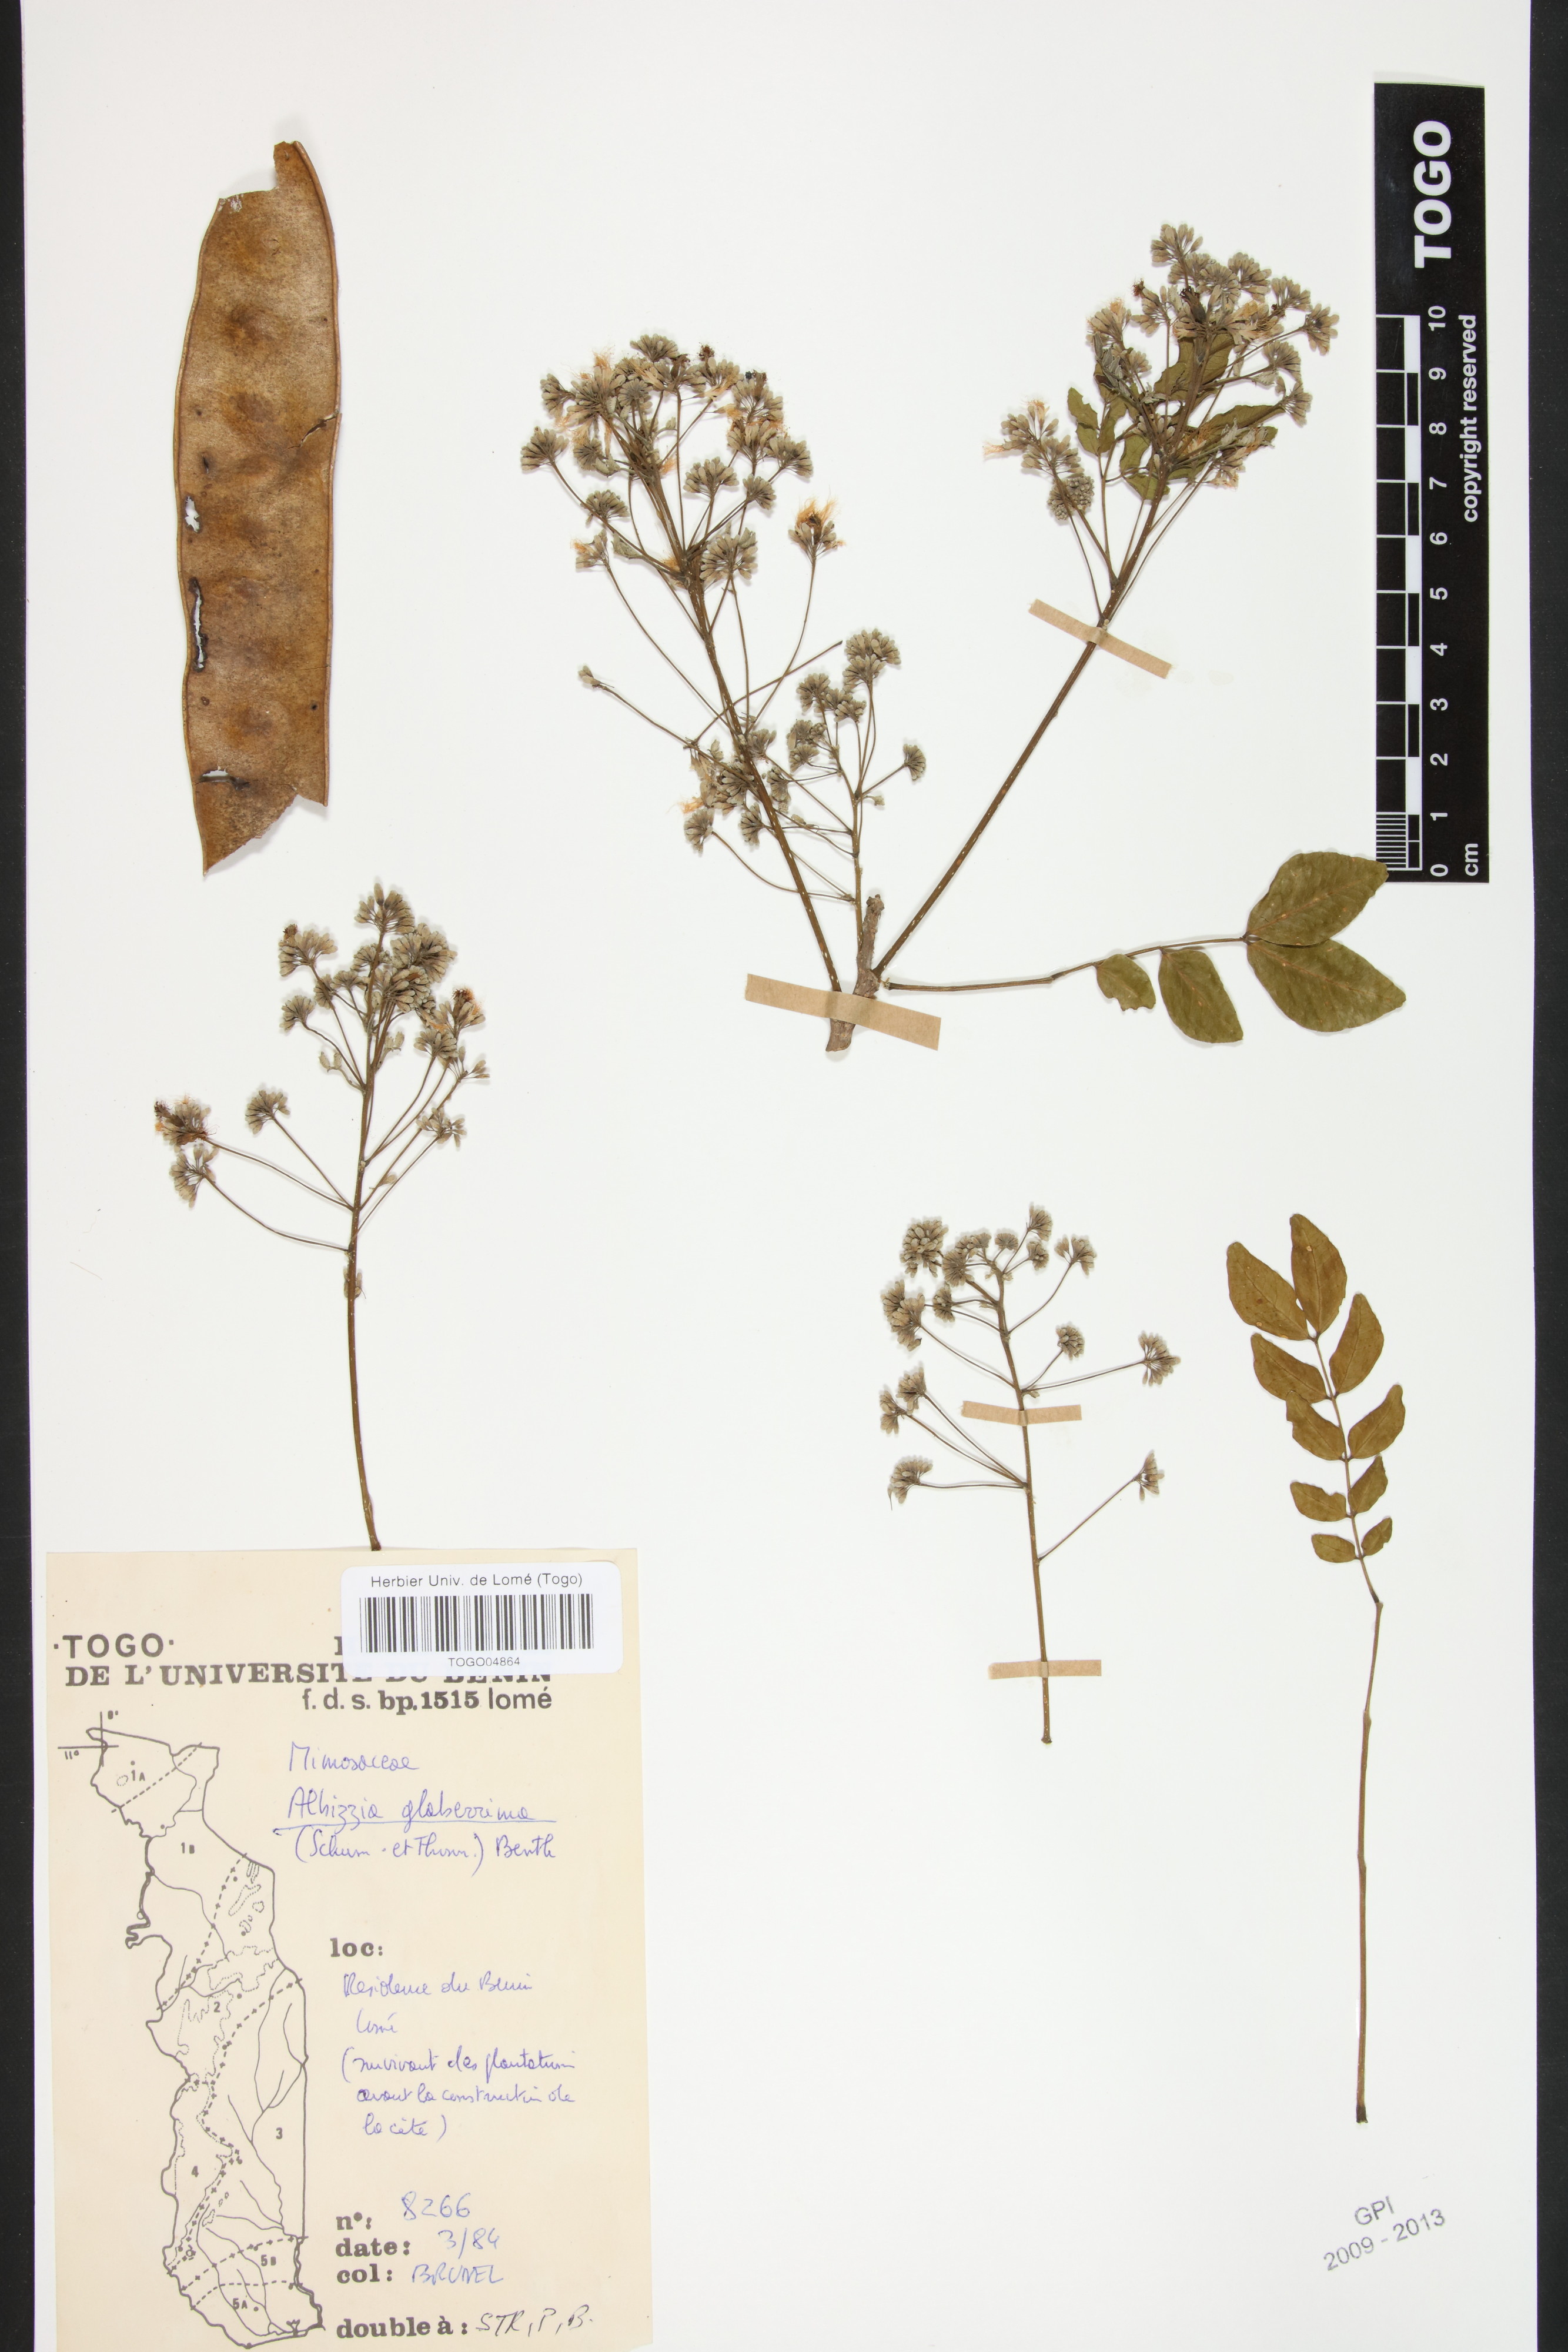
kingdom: Plantae
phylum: Tracheophyta
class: Magnoliopsida
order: Fabales
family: Fabaceae
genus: Albizia
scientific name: Albizia glaberrima
